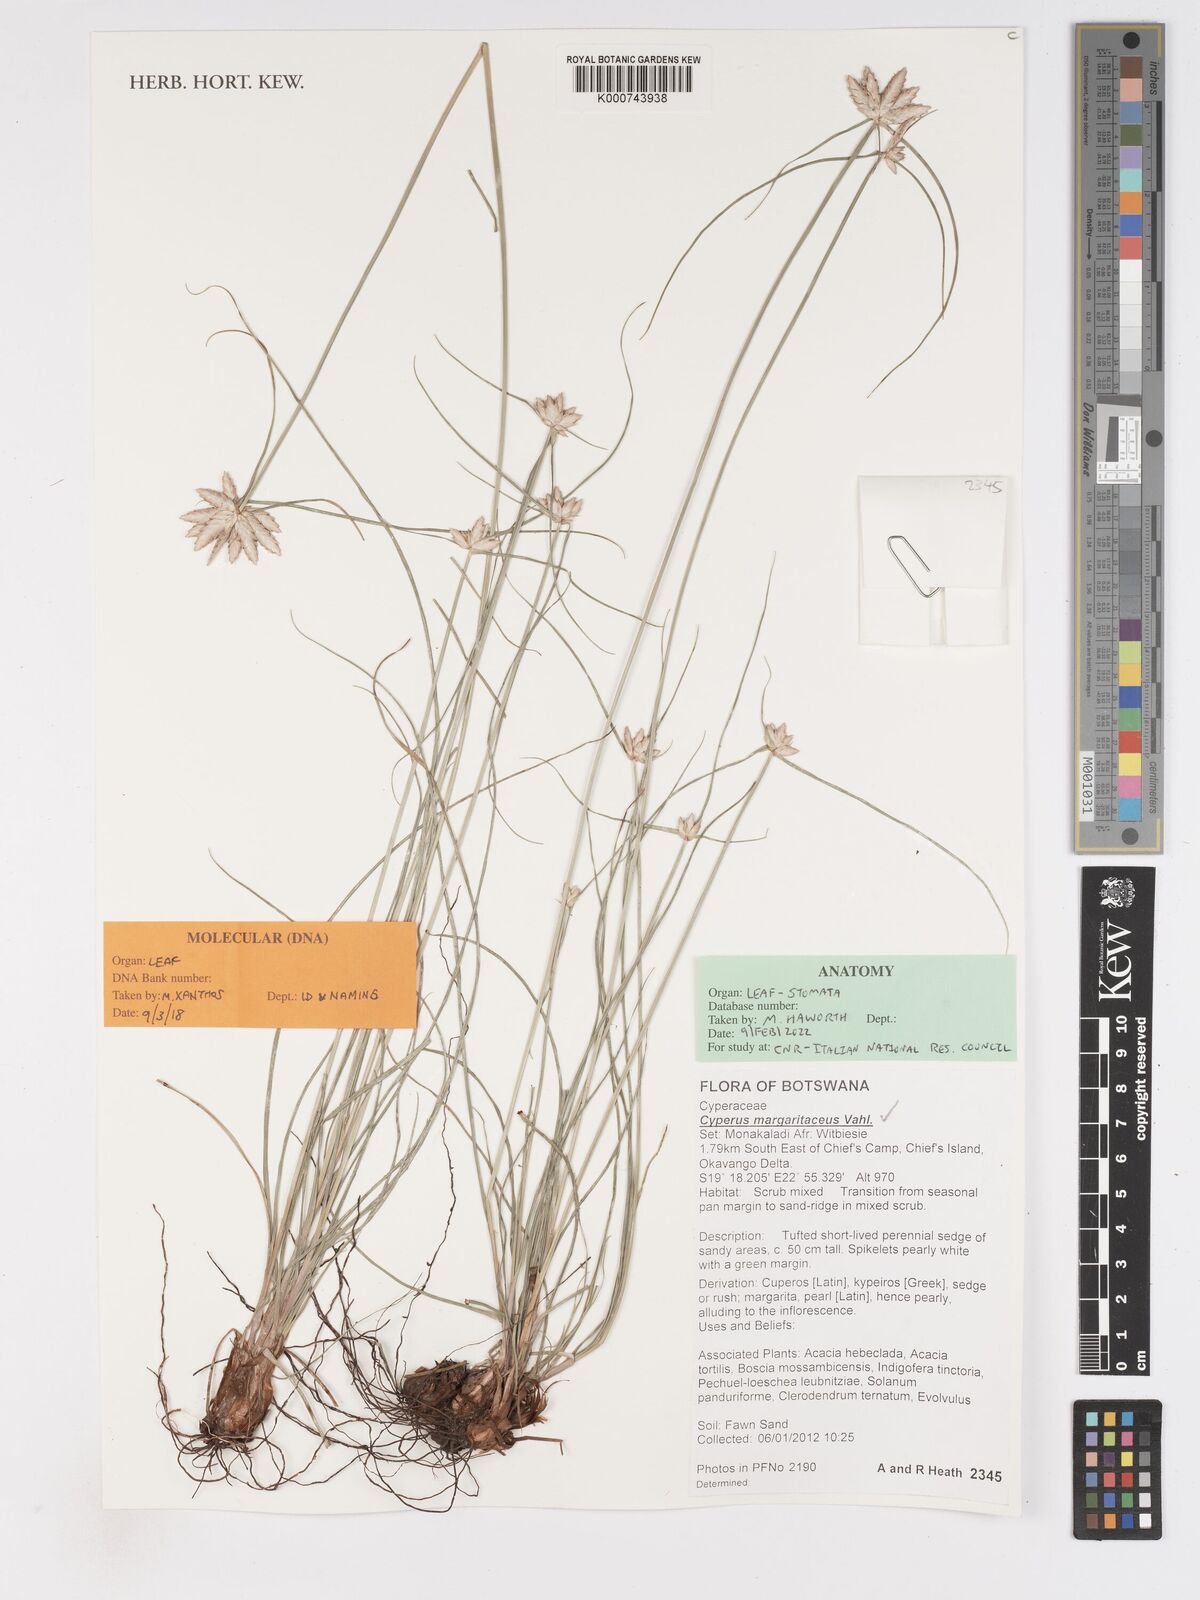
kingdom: Plantae
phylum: Tracheophyta
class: Liliopsida
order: Poales
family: Cyperaceae
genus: Cyperus
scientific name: Cyperus margaritaceus
